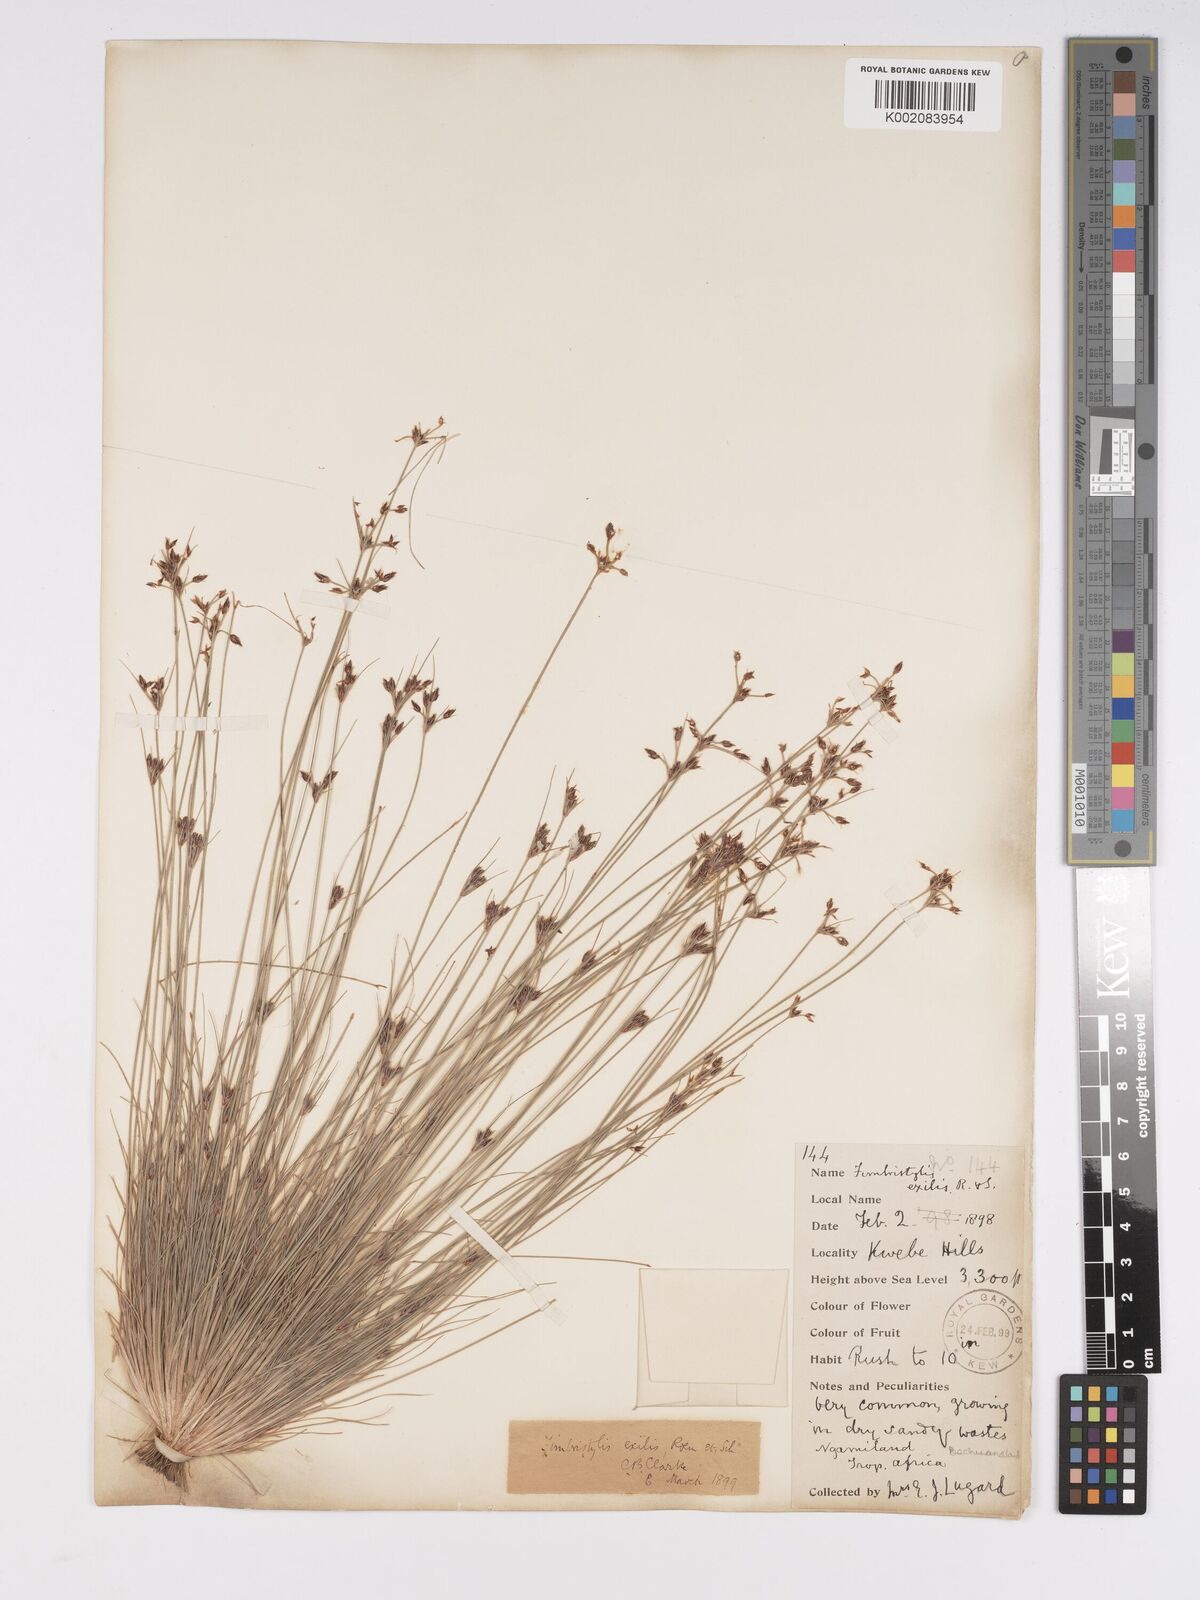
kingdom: Plantae
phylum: Tracheophyta
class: Liliopsida
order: Poales
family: Cyperaceae
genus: Bulbostylis
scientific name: Bulbostylis hispidula
